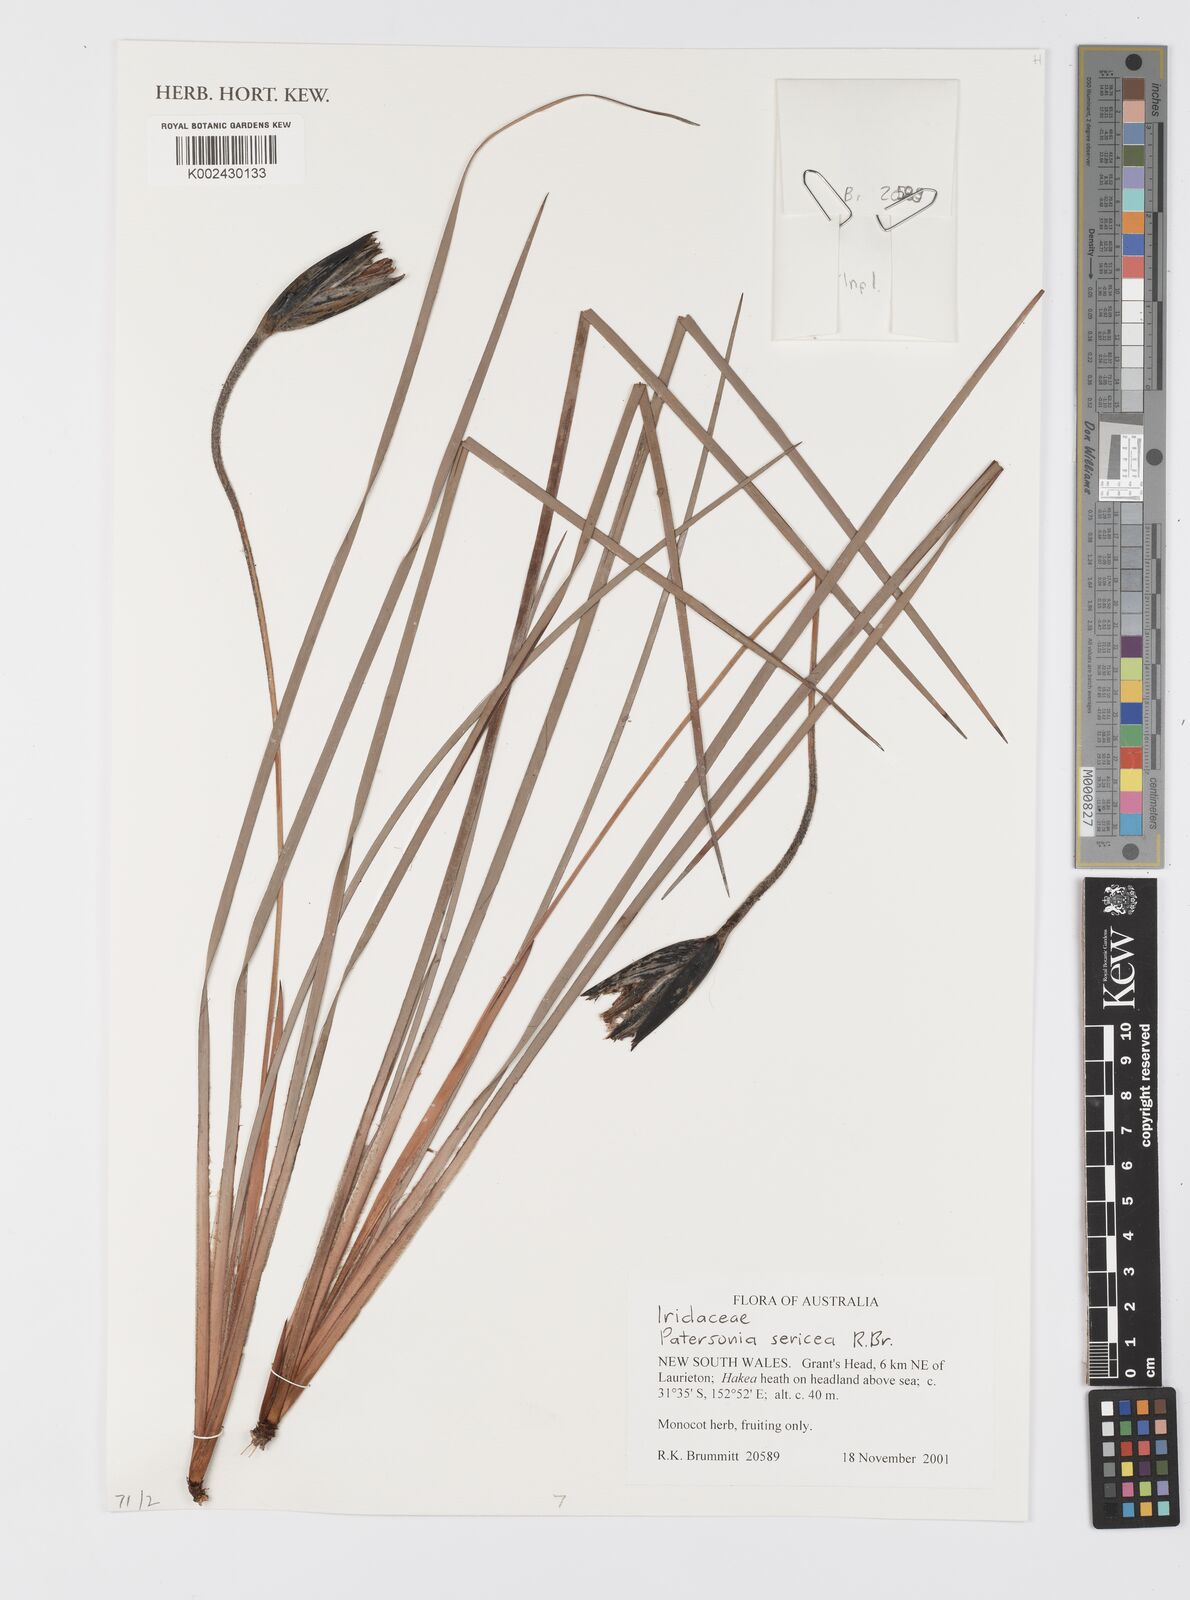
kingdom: Plantae
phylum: Tracheophyta
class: Liliopsida
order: Asparagales
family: Iridaceae
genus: Patersonia
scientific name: Patersonia sericea
